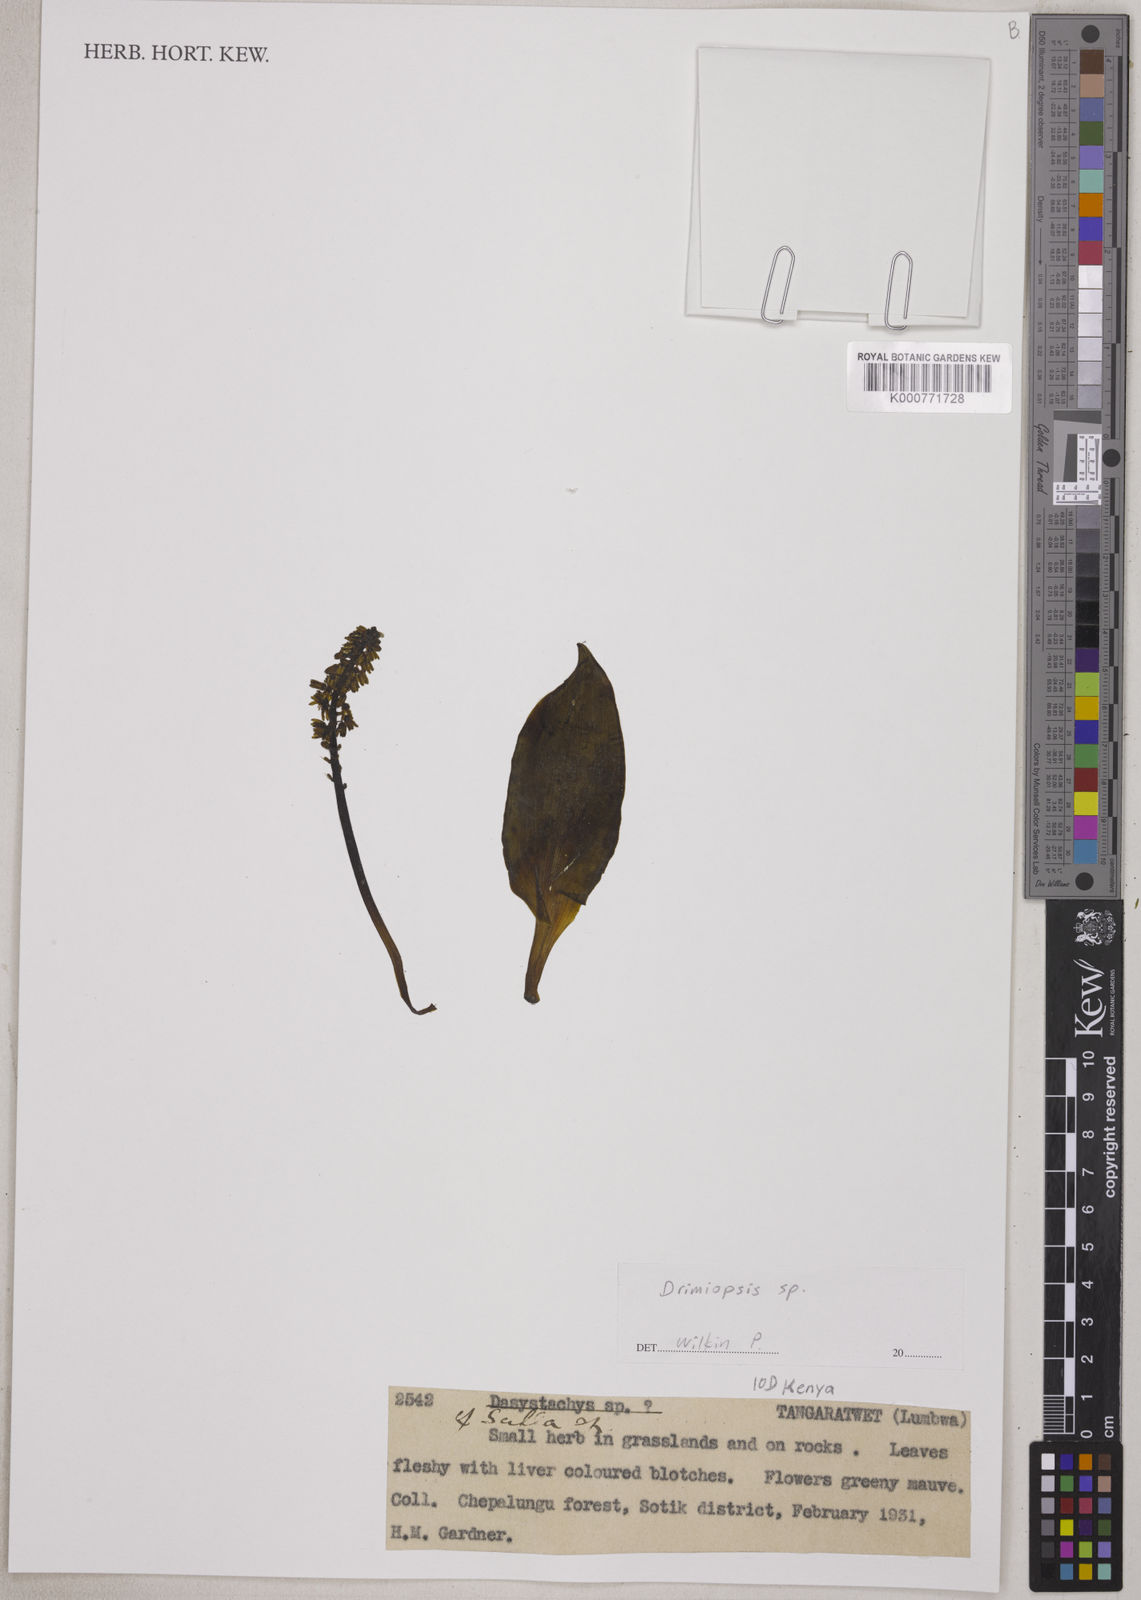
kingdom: Plantae
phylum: Tracheophyta
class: Liliopsida
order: Asparagales
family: Asparagaceae
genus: Drimiopsis
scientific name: Drimiopsis
